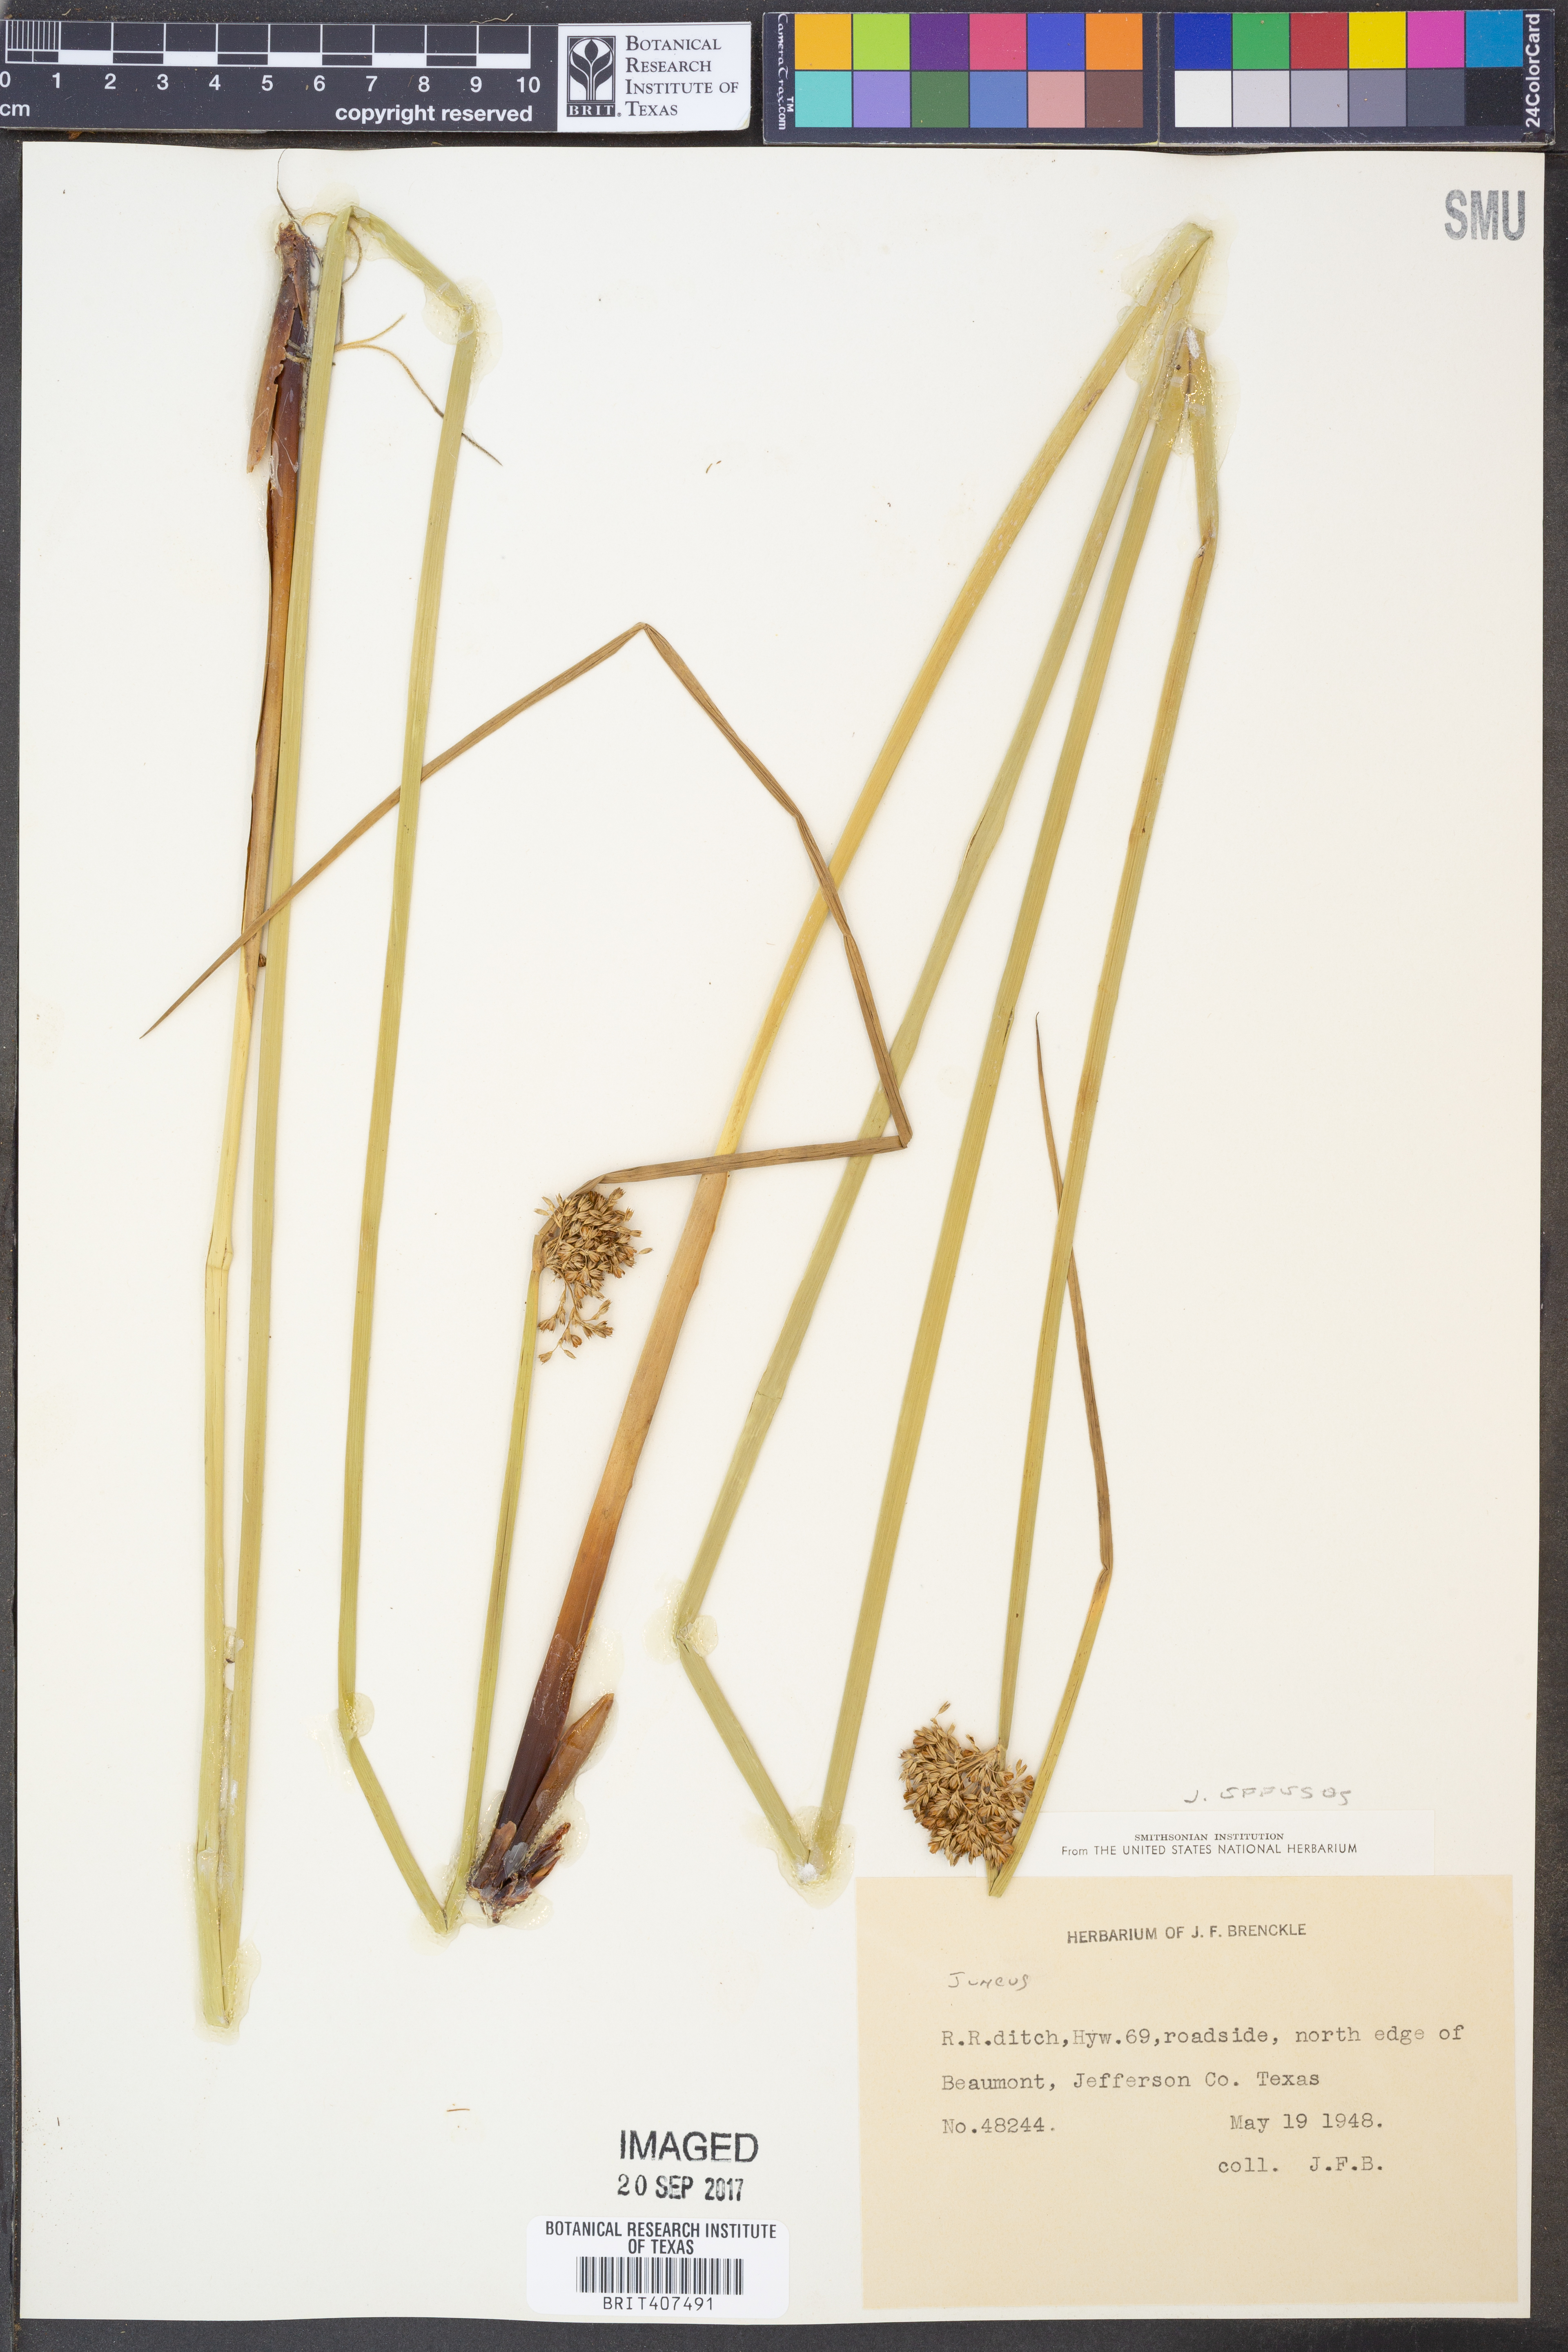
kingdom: Plantae
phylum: Tracheophyta
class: Liliopsida
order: Poales
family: Juncaceae
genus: Juncus
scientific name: Juncus effusus
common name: Soft rush
